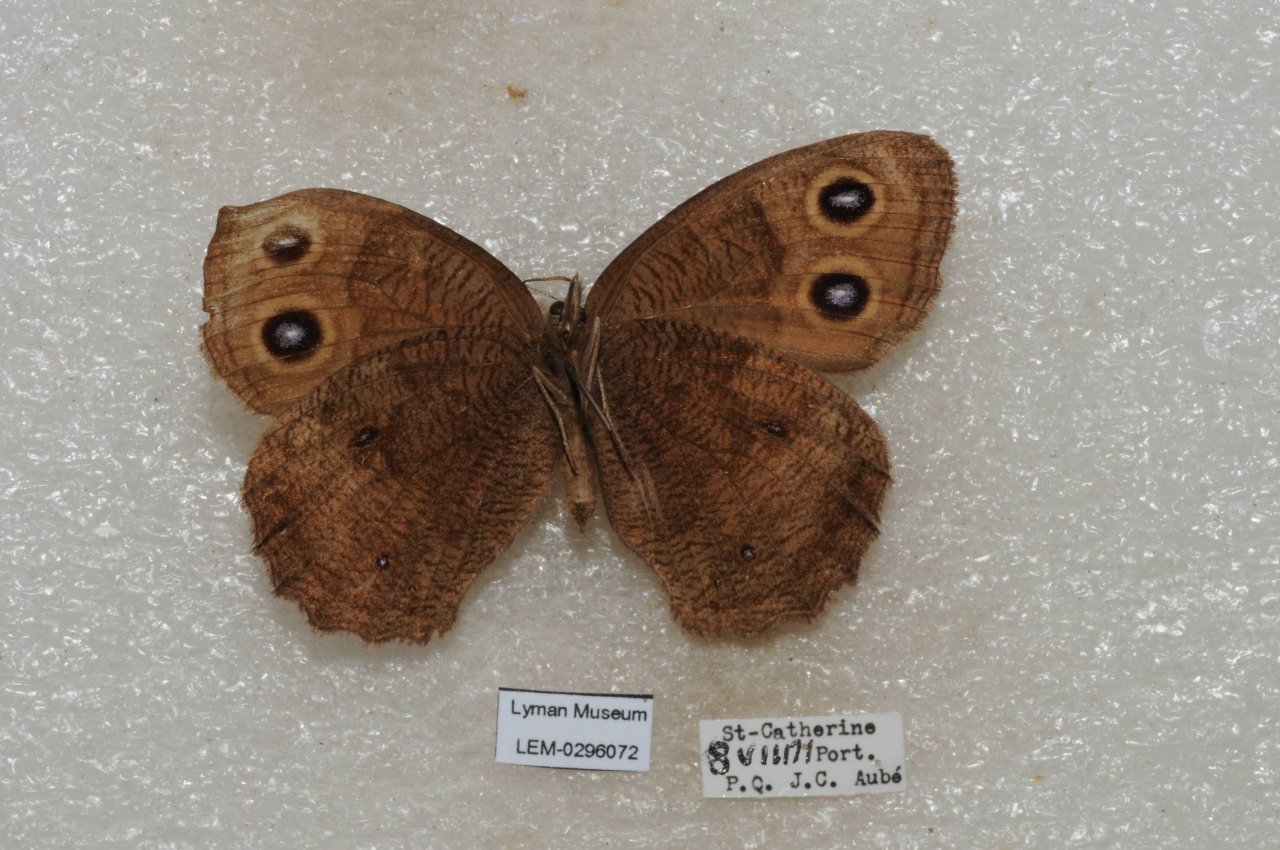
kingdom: Animalia
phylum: Arthropoda
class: Insecta
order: Lepidoptera
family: Nymphalidae
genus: Cercyonis
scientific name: Cercyonis pegala
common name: Common Wood-Nymph
